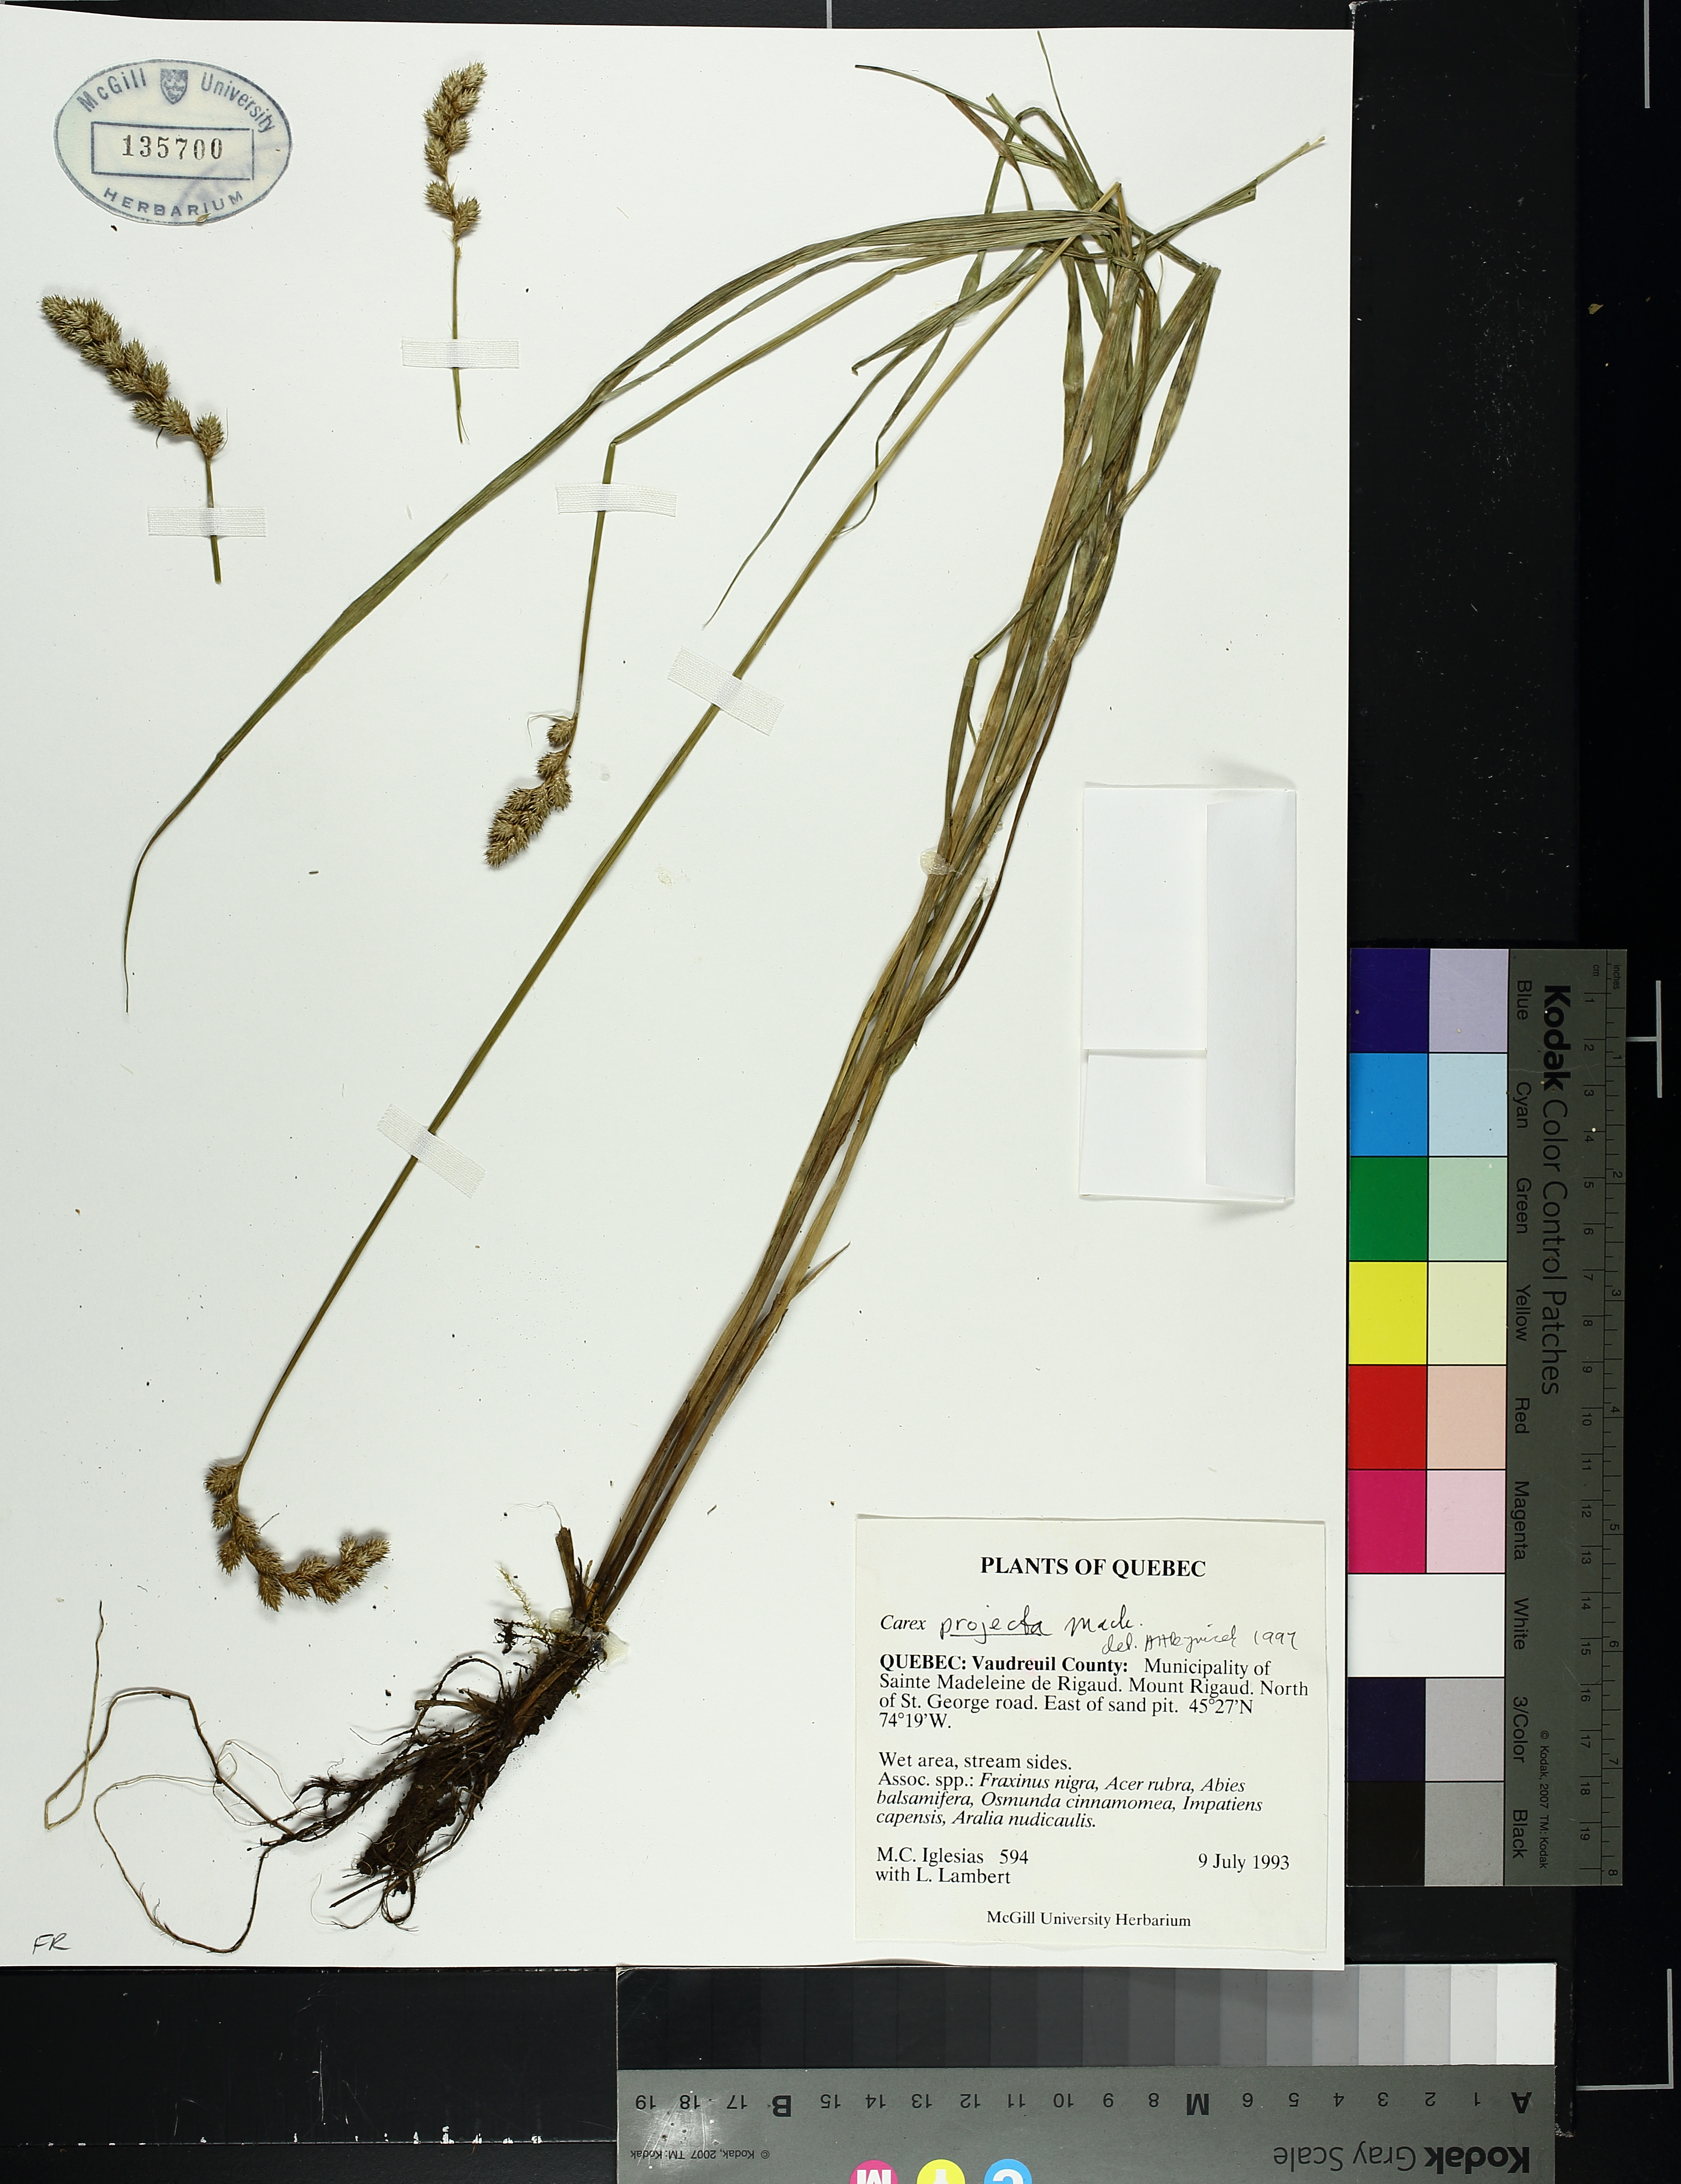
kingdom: Plantae
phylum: Tracheophyta
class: Liliopsida
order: Poales
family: Cyperaceae
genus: Carex
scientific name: Carex projecta
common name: Loose-headed oval sedge
